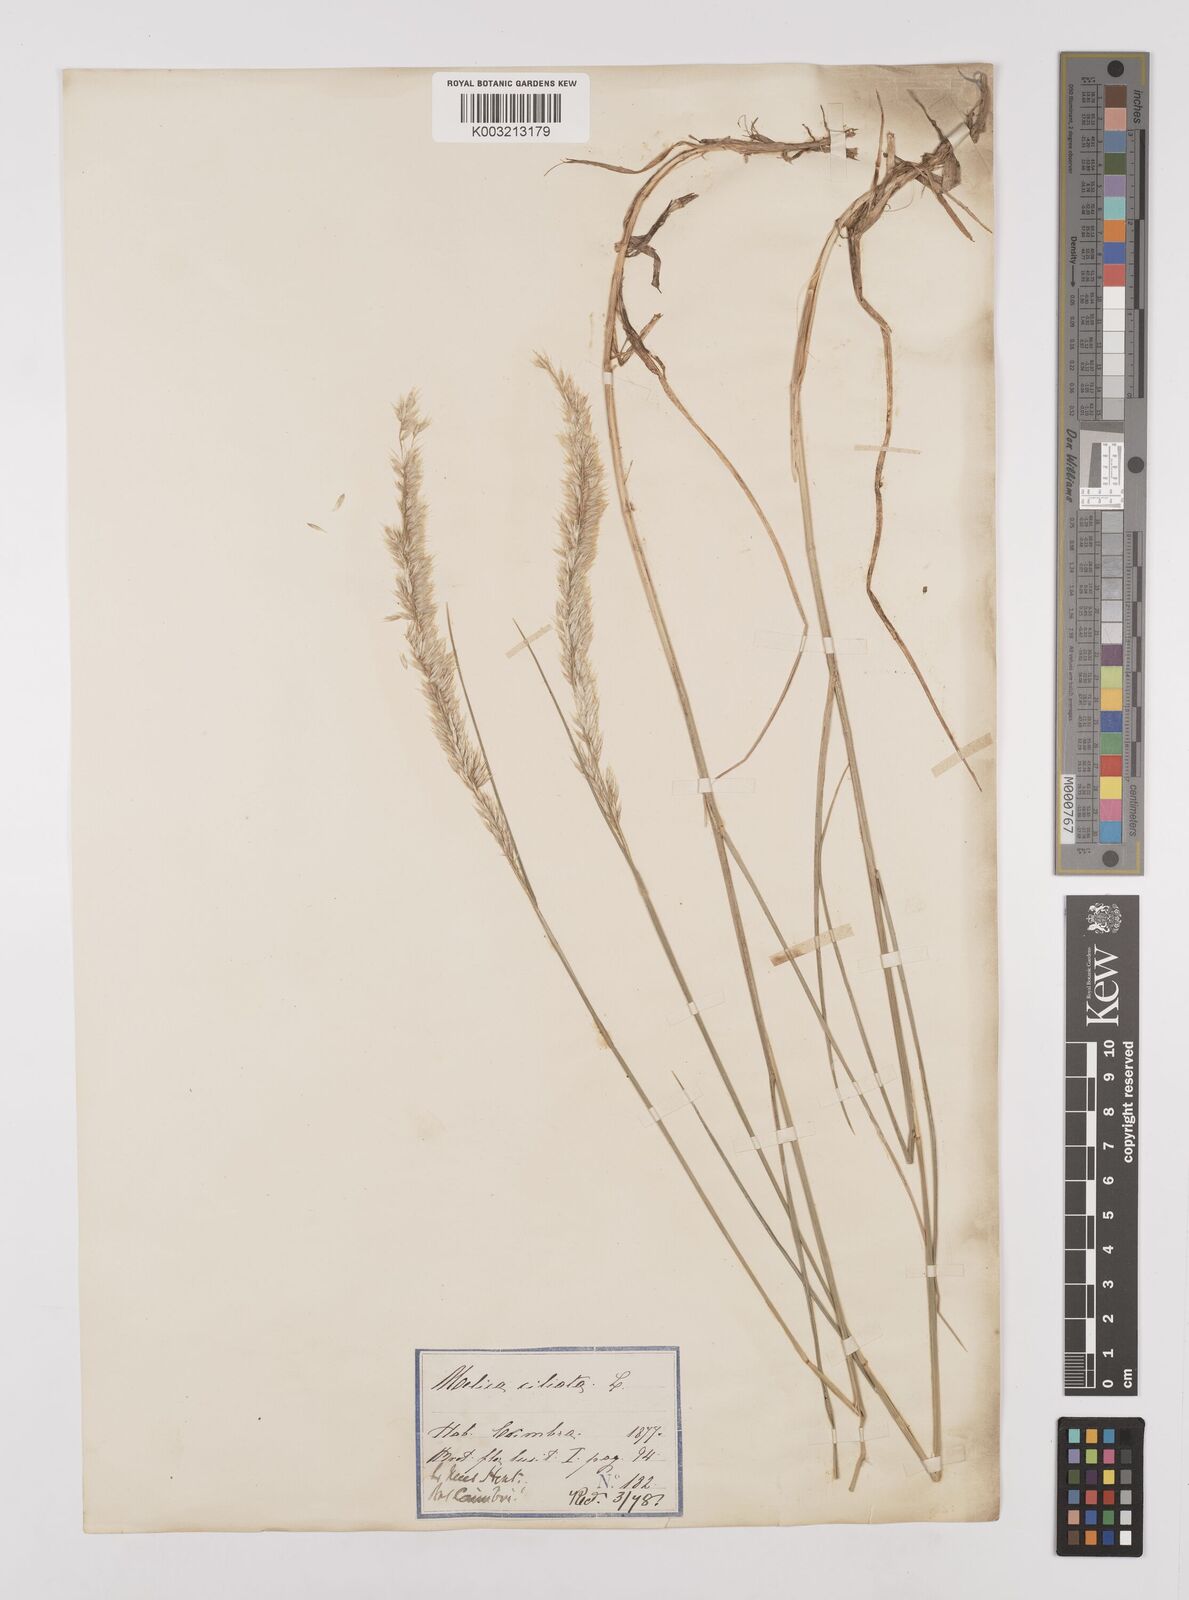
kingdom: Plantae
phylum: Tracheophyta
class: Liliopsida
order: Poales
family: Poaceae
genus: Melica
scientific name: Melica ciliata
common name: Hairy melicgrass
